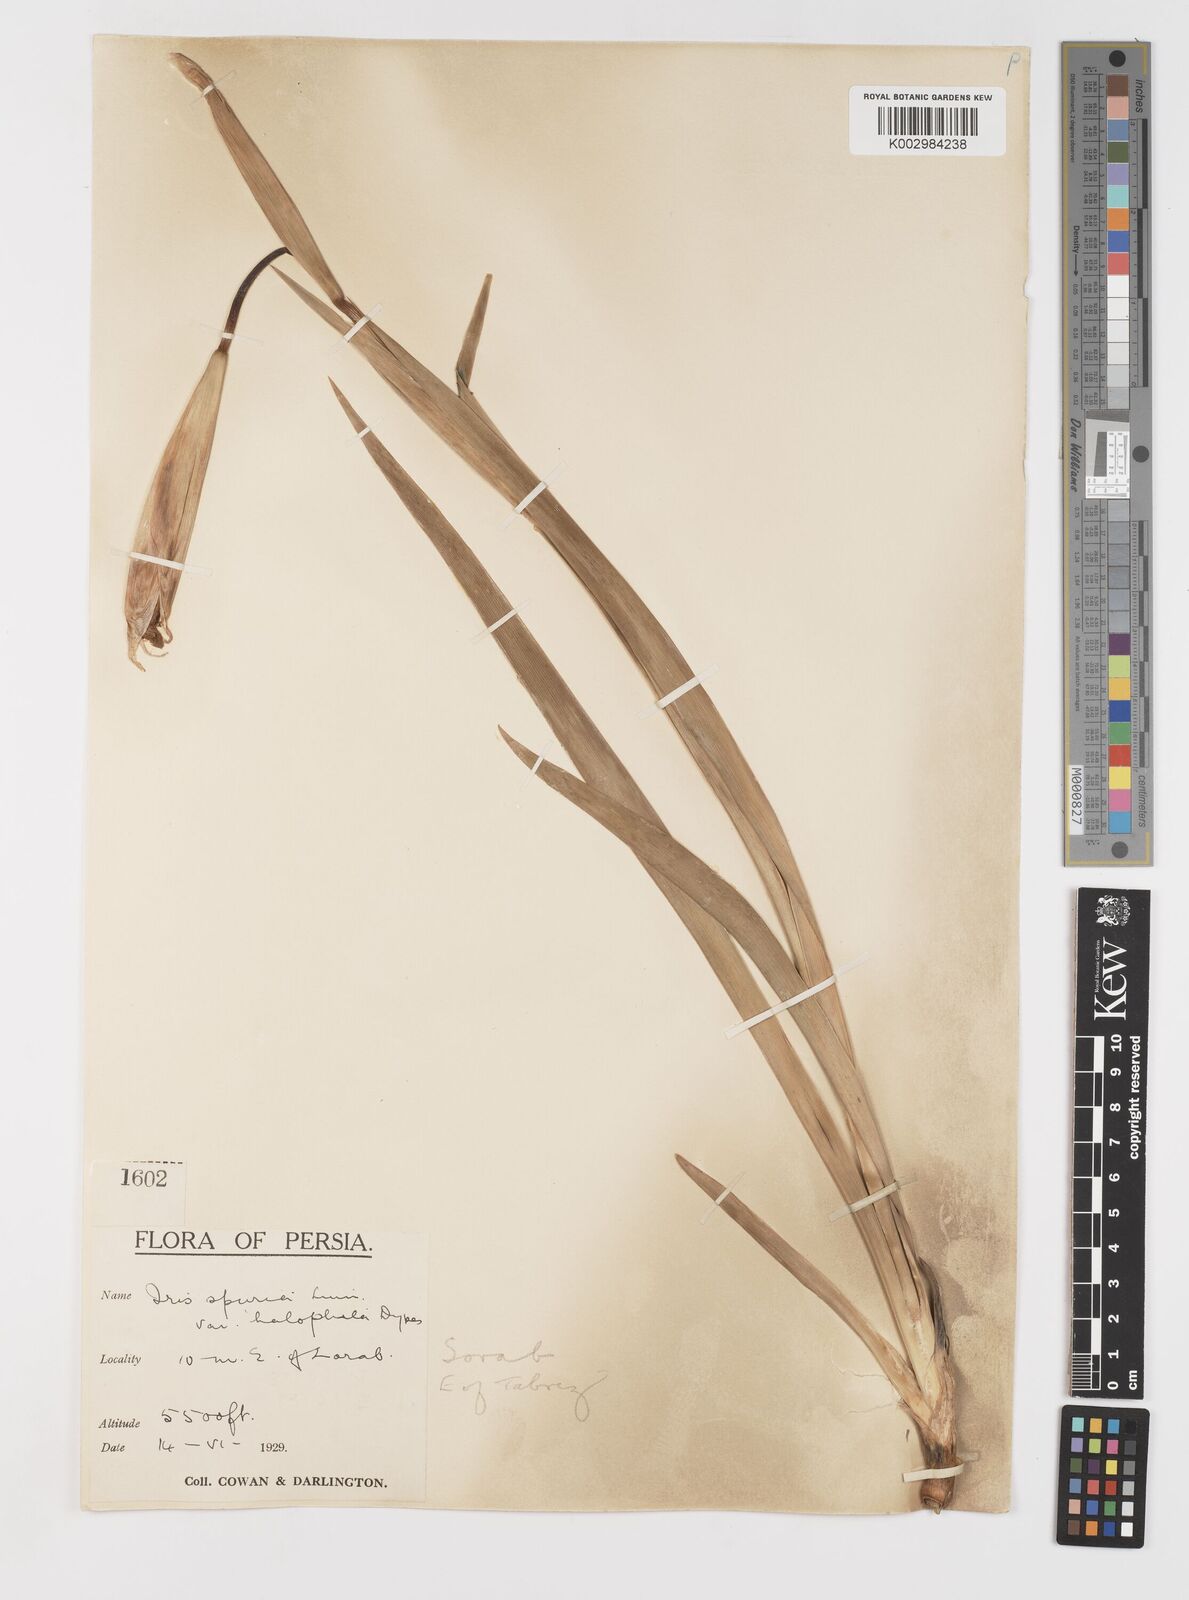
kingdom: Plantae
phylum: Tracheophyta
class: Liliopsida
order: Asparagales
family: Iridaceae
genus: Iris
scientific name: Iris spuria
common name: Blue iris
